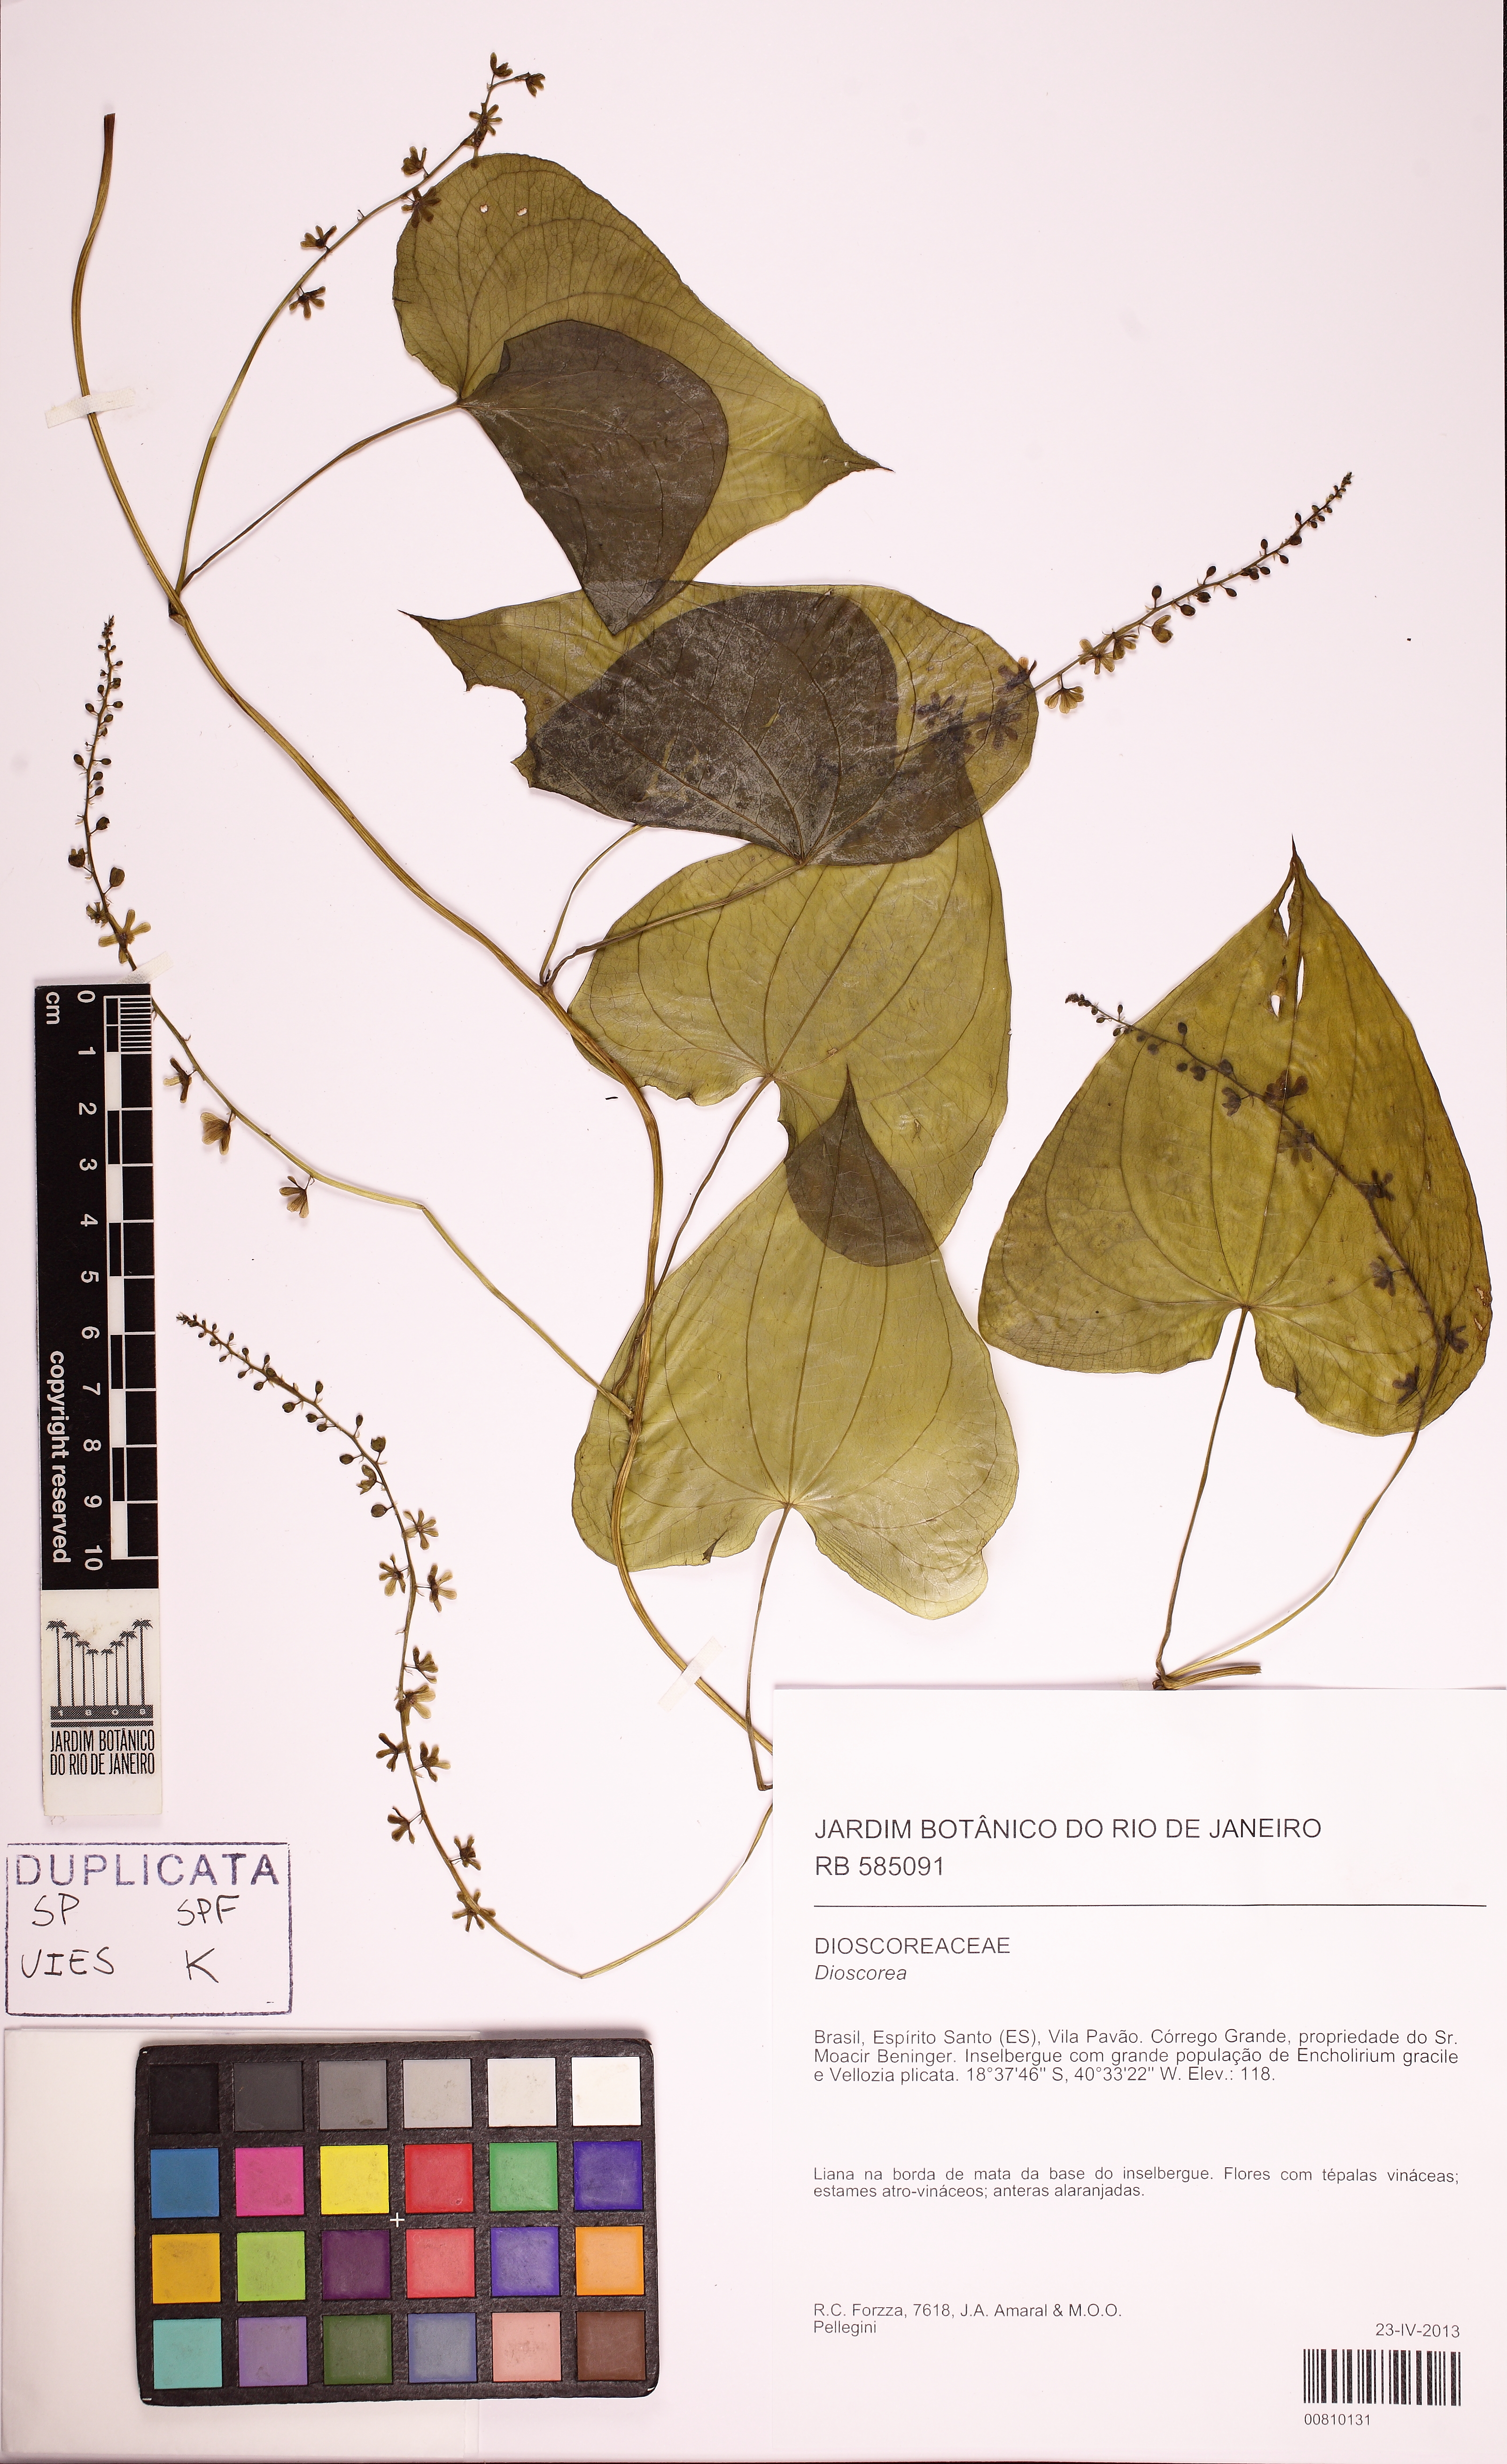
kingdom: Plantae
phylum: Tracheophyta
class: Liliopsida
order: Dioscoreales
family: Dioscoreaceae
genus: Dioscorea
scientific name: Dioscorea glandulosa
